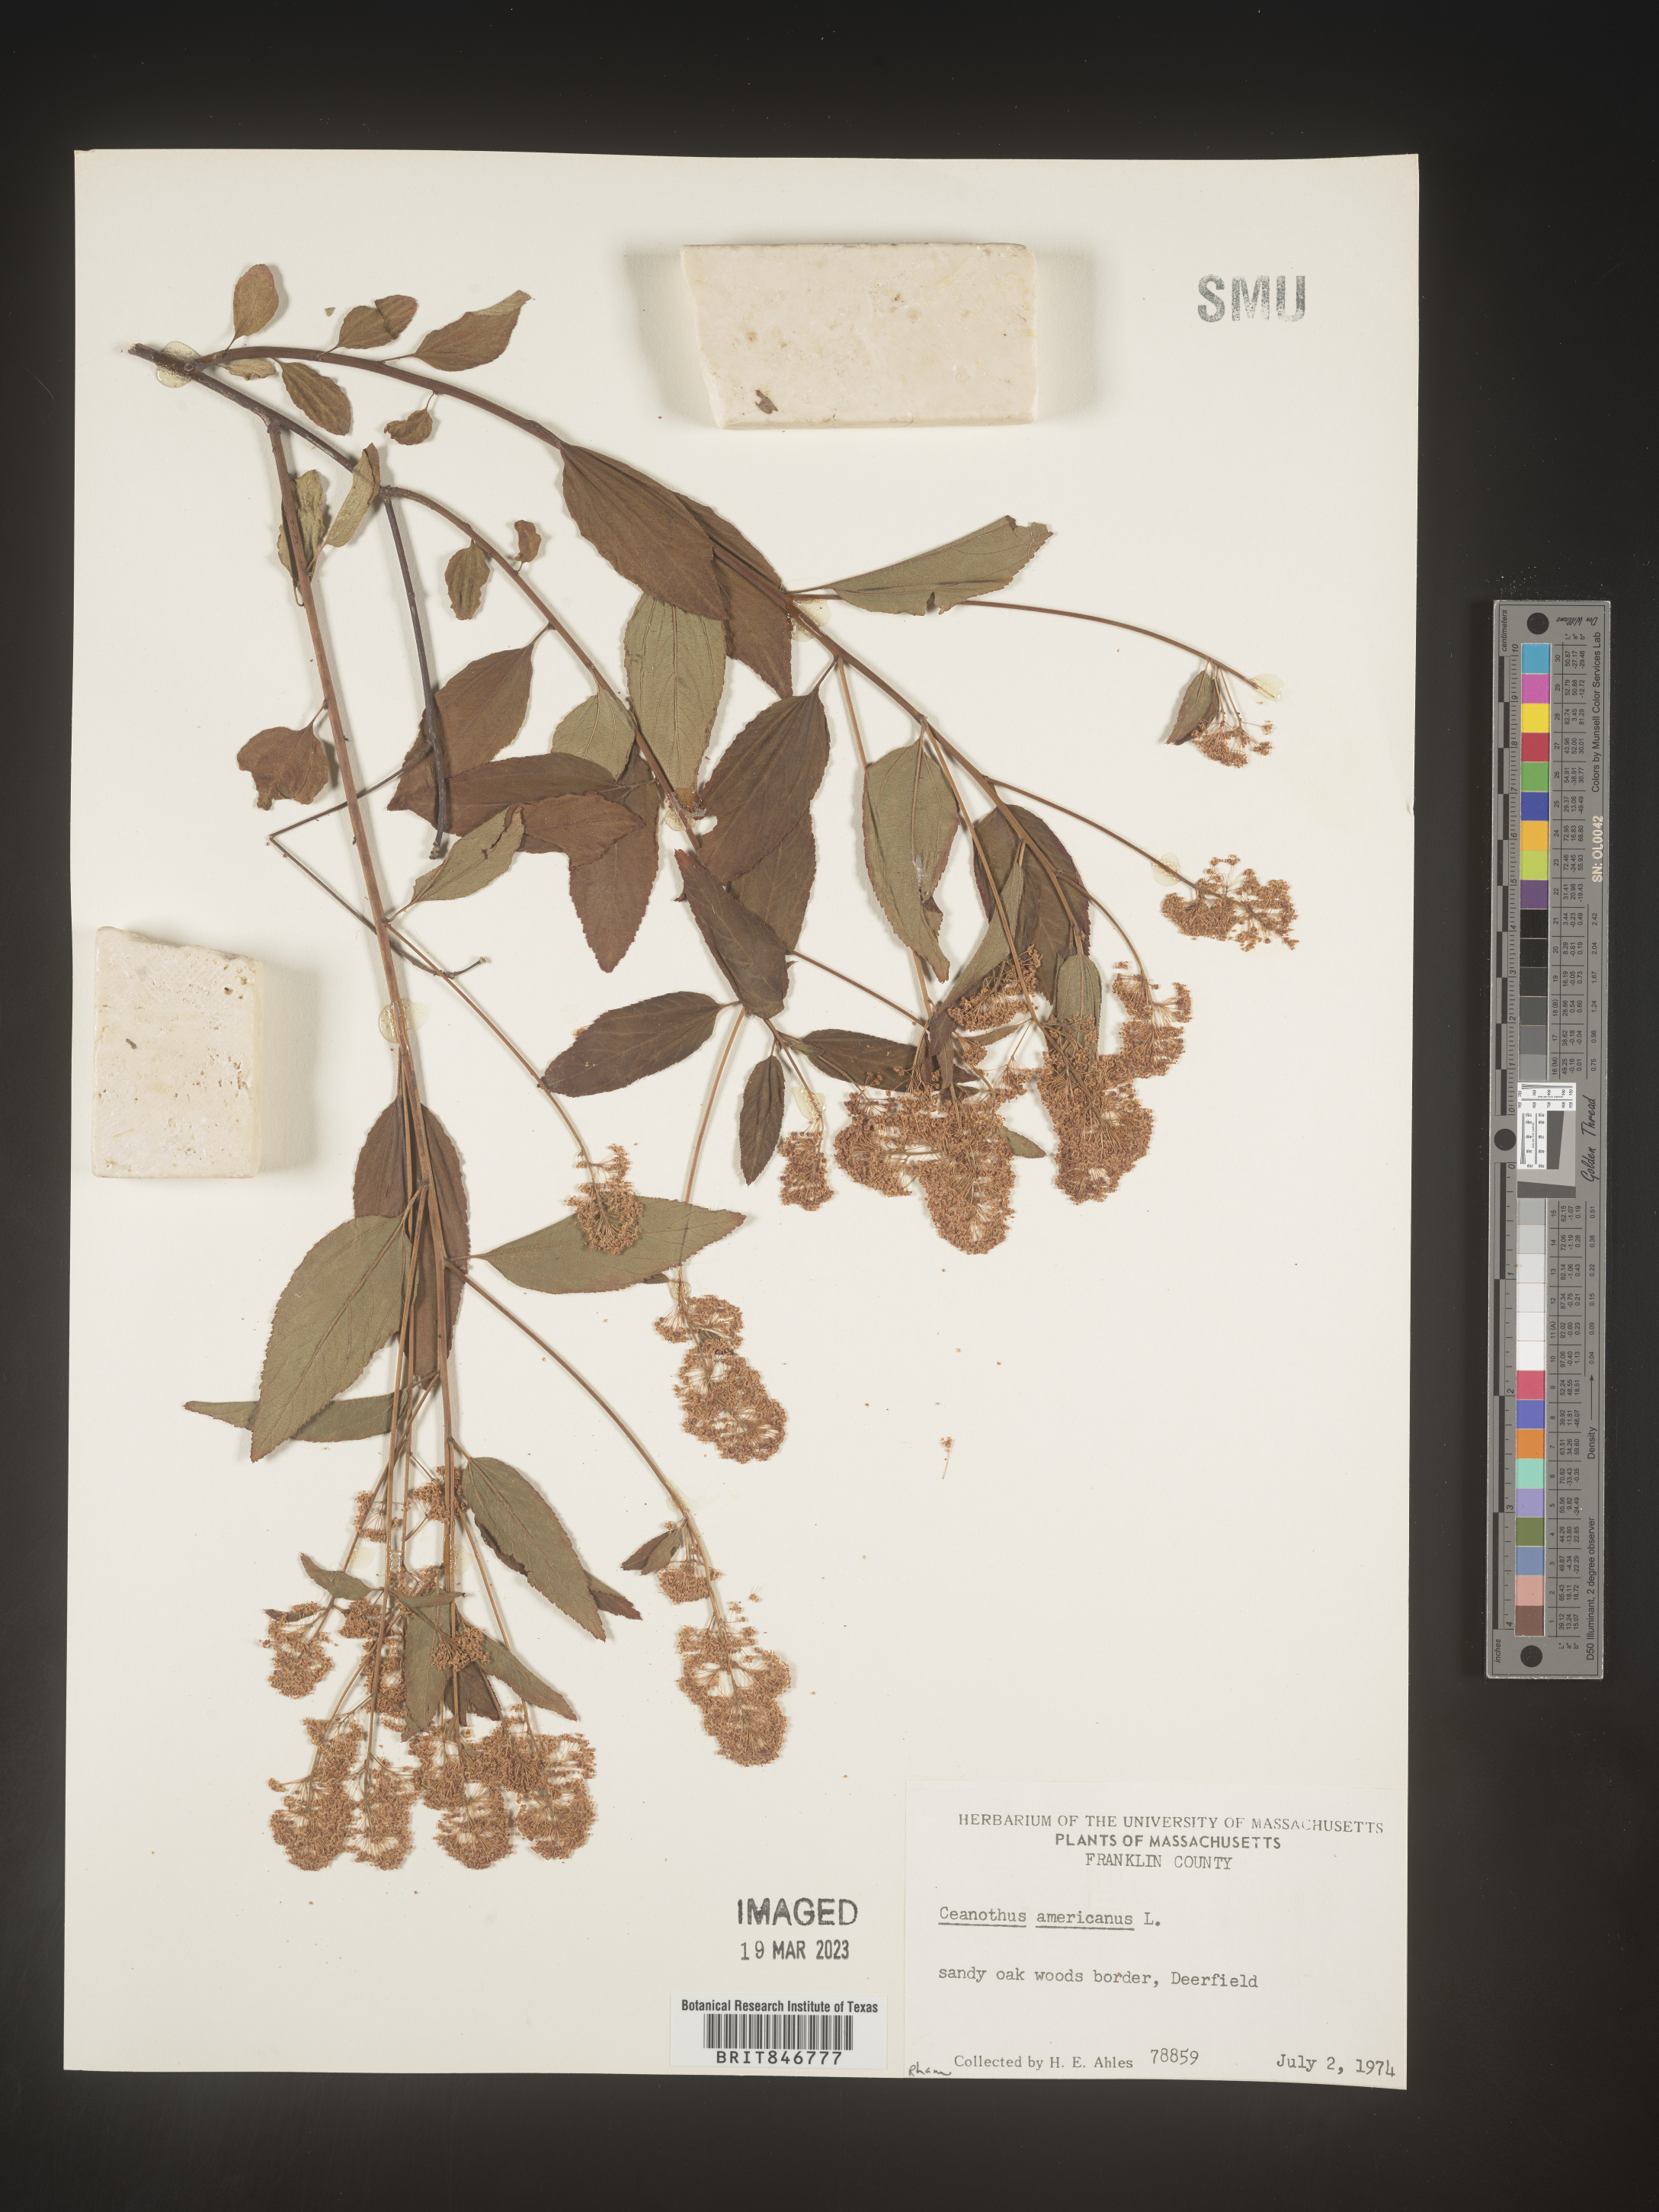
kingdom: Plantae
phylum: Tracheophyta
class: Magnoliopsida
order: Rosales
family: Rhamnaceae
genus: Ceanothus
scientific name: Ceanothus americanus
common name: Redroot
